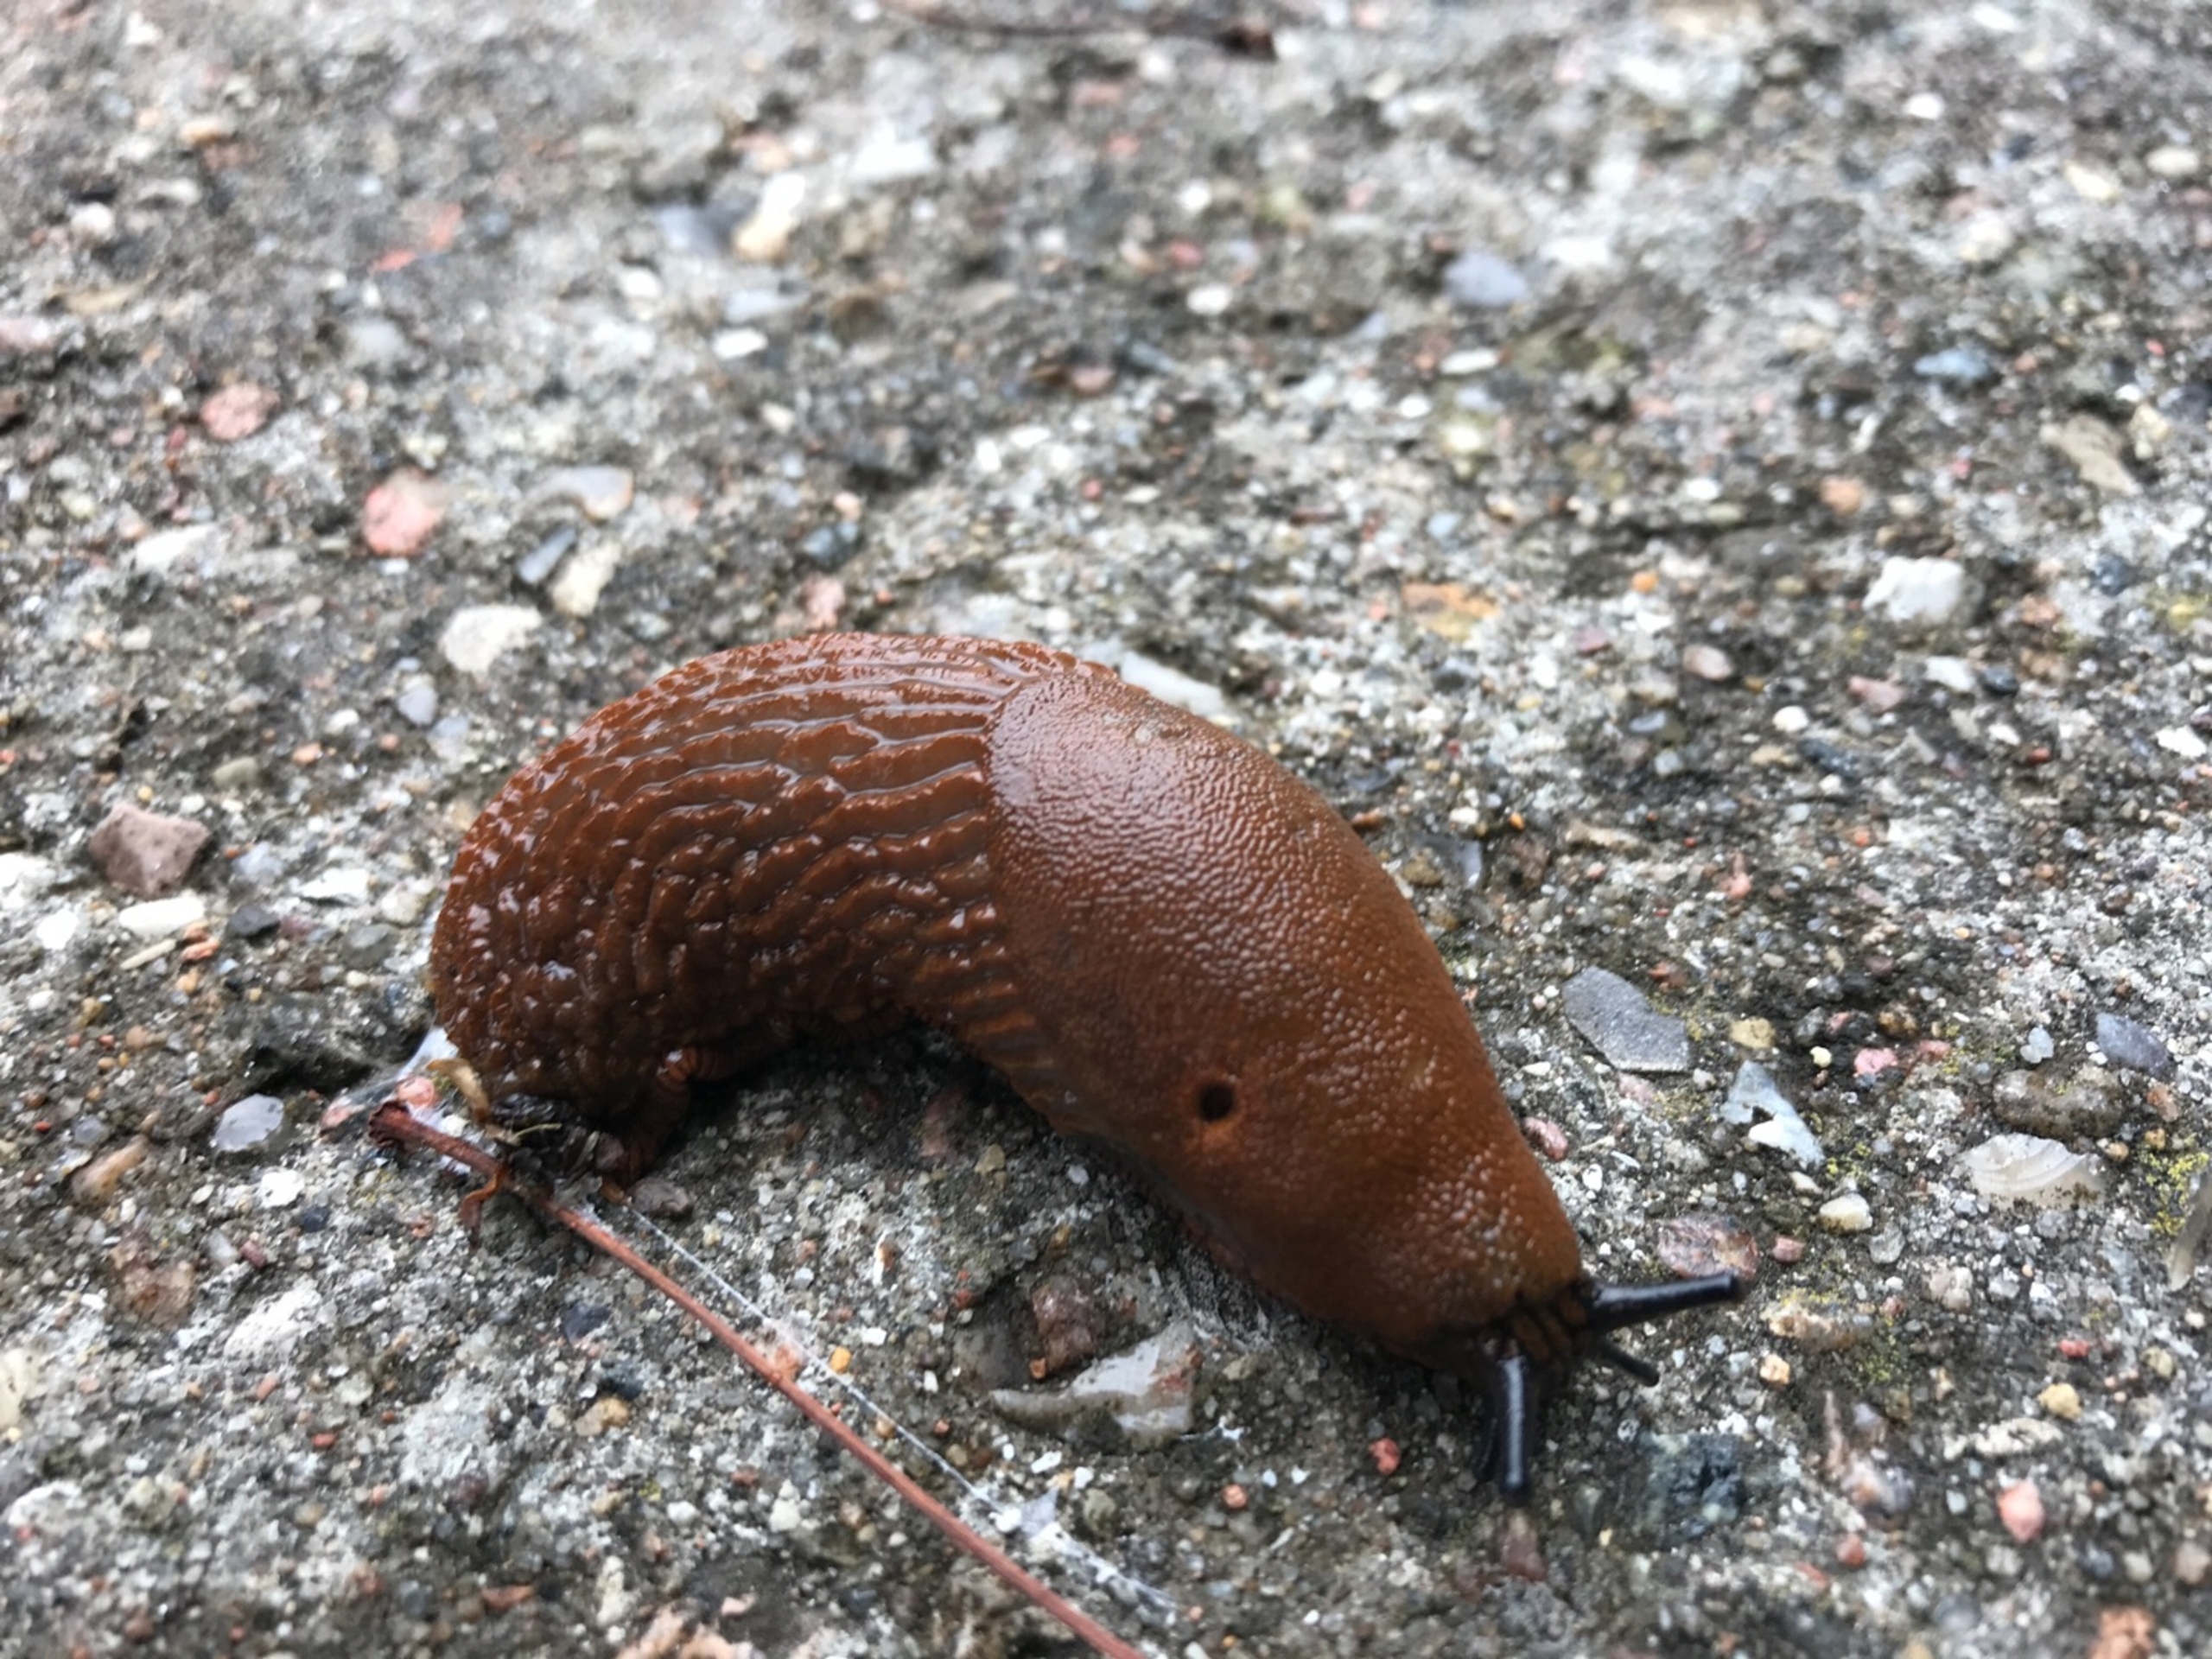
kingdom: Animalia
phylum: Mollusca
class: Gastropoda
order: Stylommatophora
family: Arionidae
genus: Arion
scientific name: Arion vulgaris
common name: Iberisk skovsnegl
